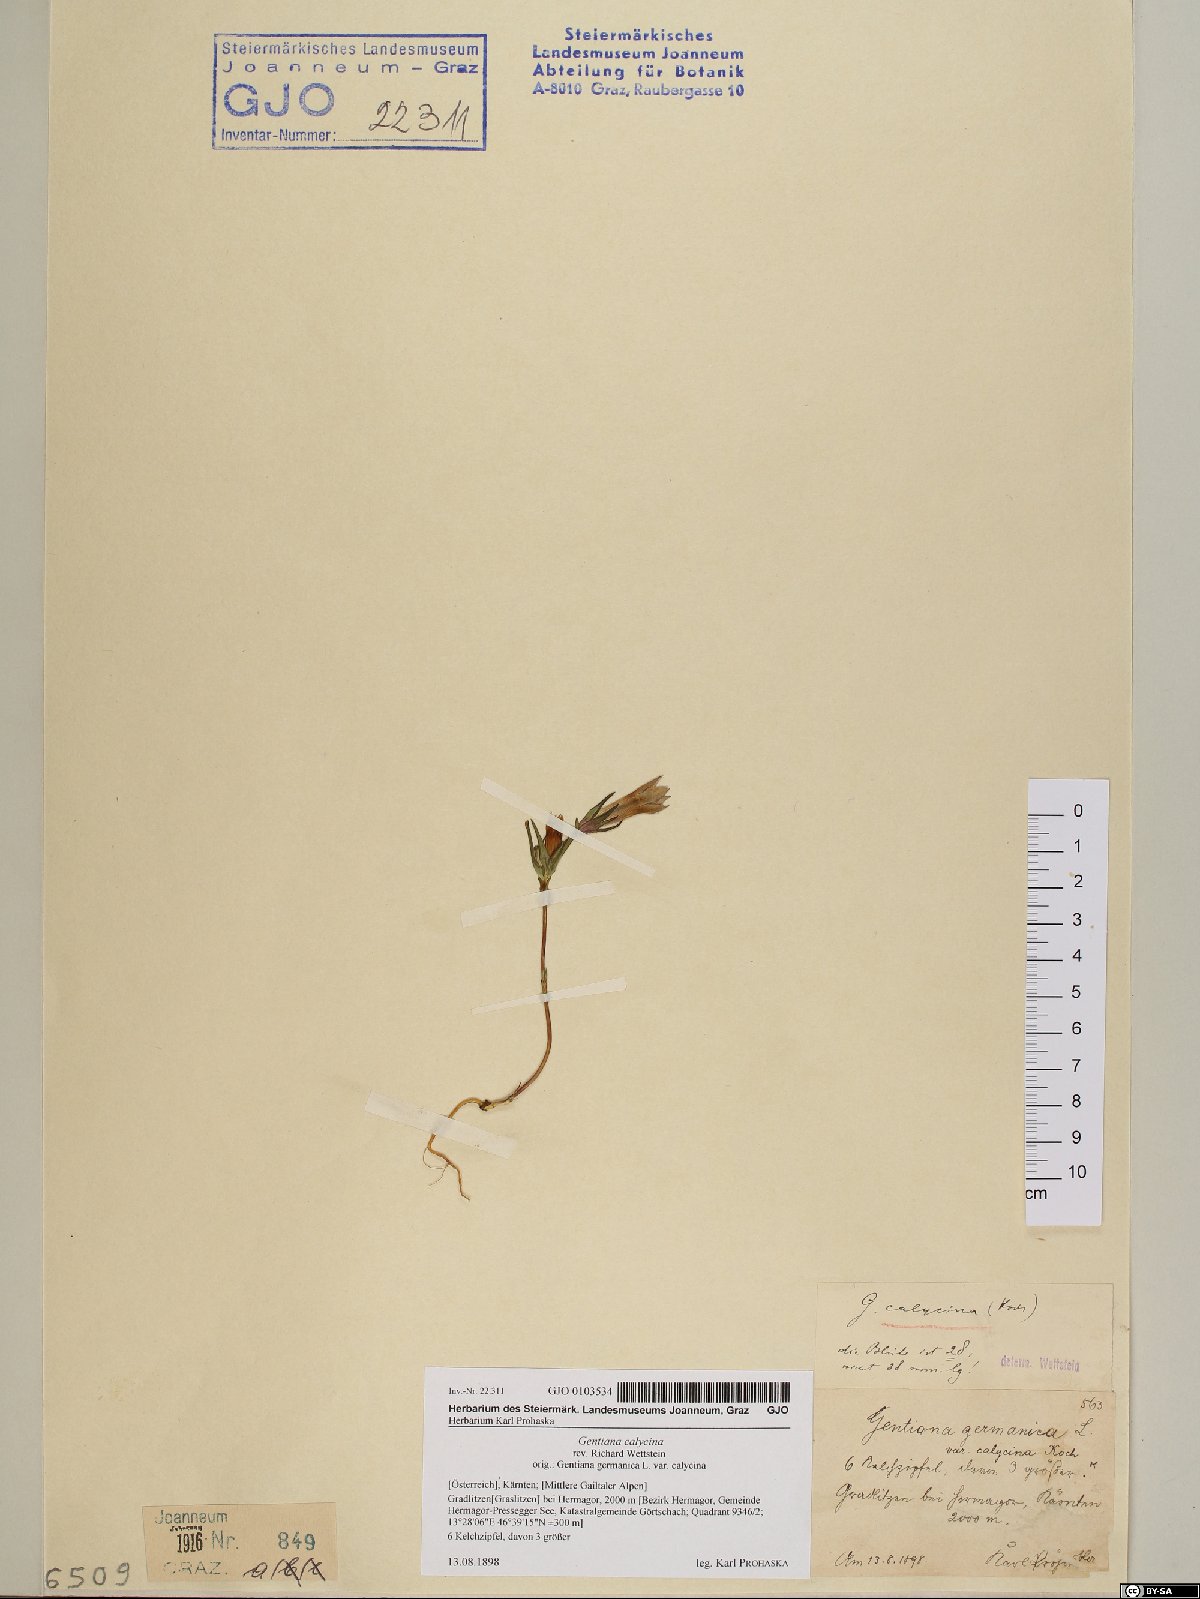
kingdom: Plantae
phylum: Tracheophyta
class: Magnoliopsida
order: Gentianales
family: Gentianaceae
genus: Gentianella
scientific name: Gentianella germanica
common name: Chiltern-gentian
